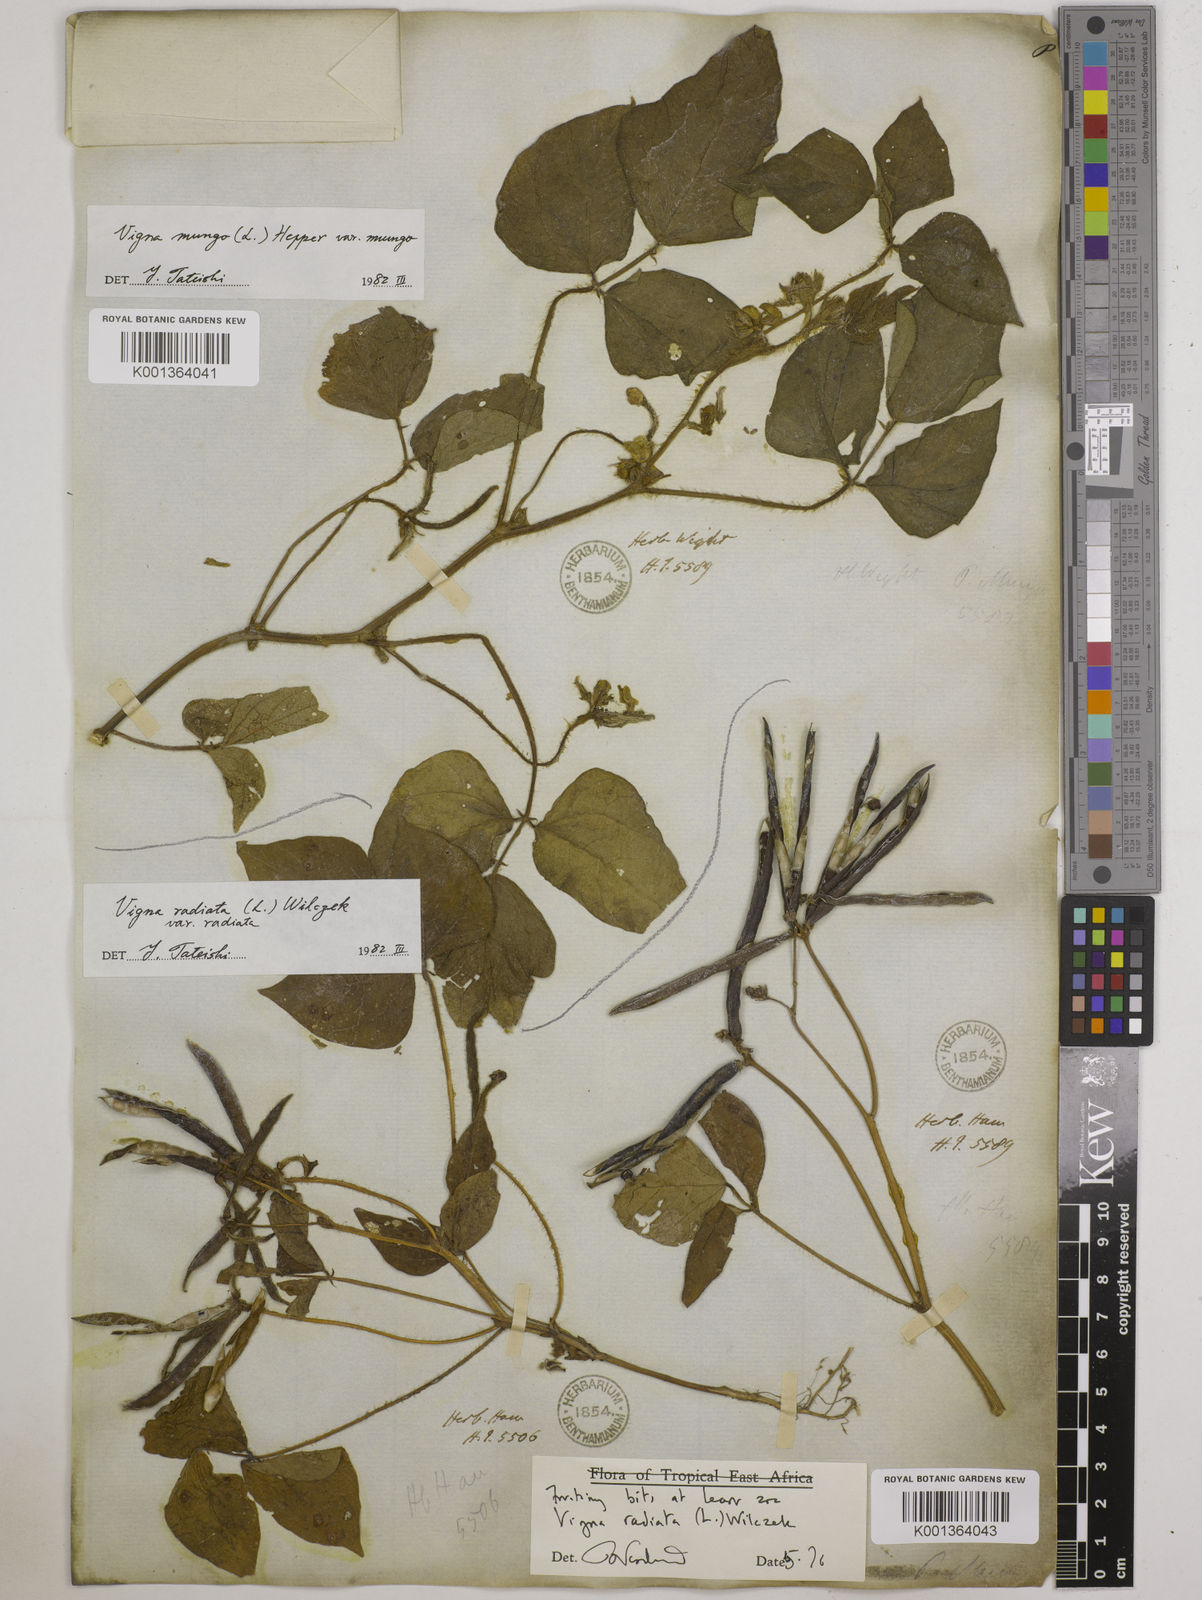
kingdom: Plantae
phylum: Tracheophyta
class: Magnoliopsida
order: Fabales
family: Fabaceae
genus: Vigna
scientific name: Vigna radiata
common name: Mung-bean
